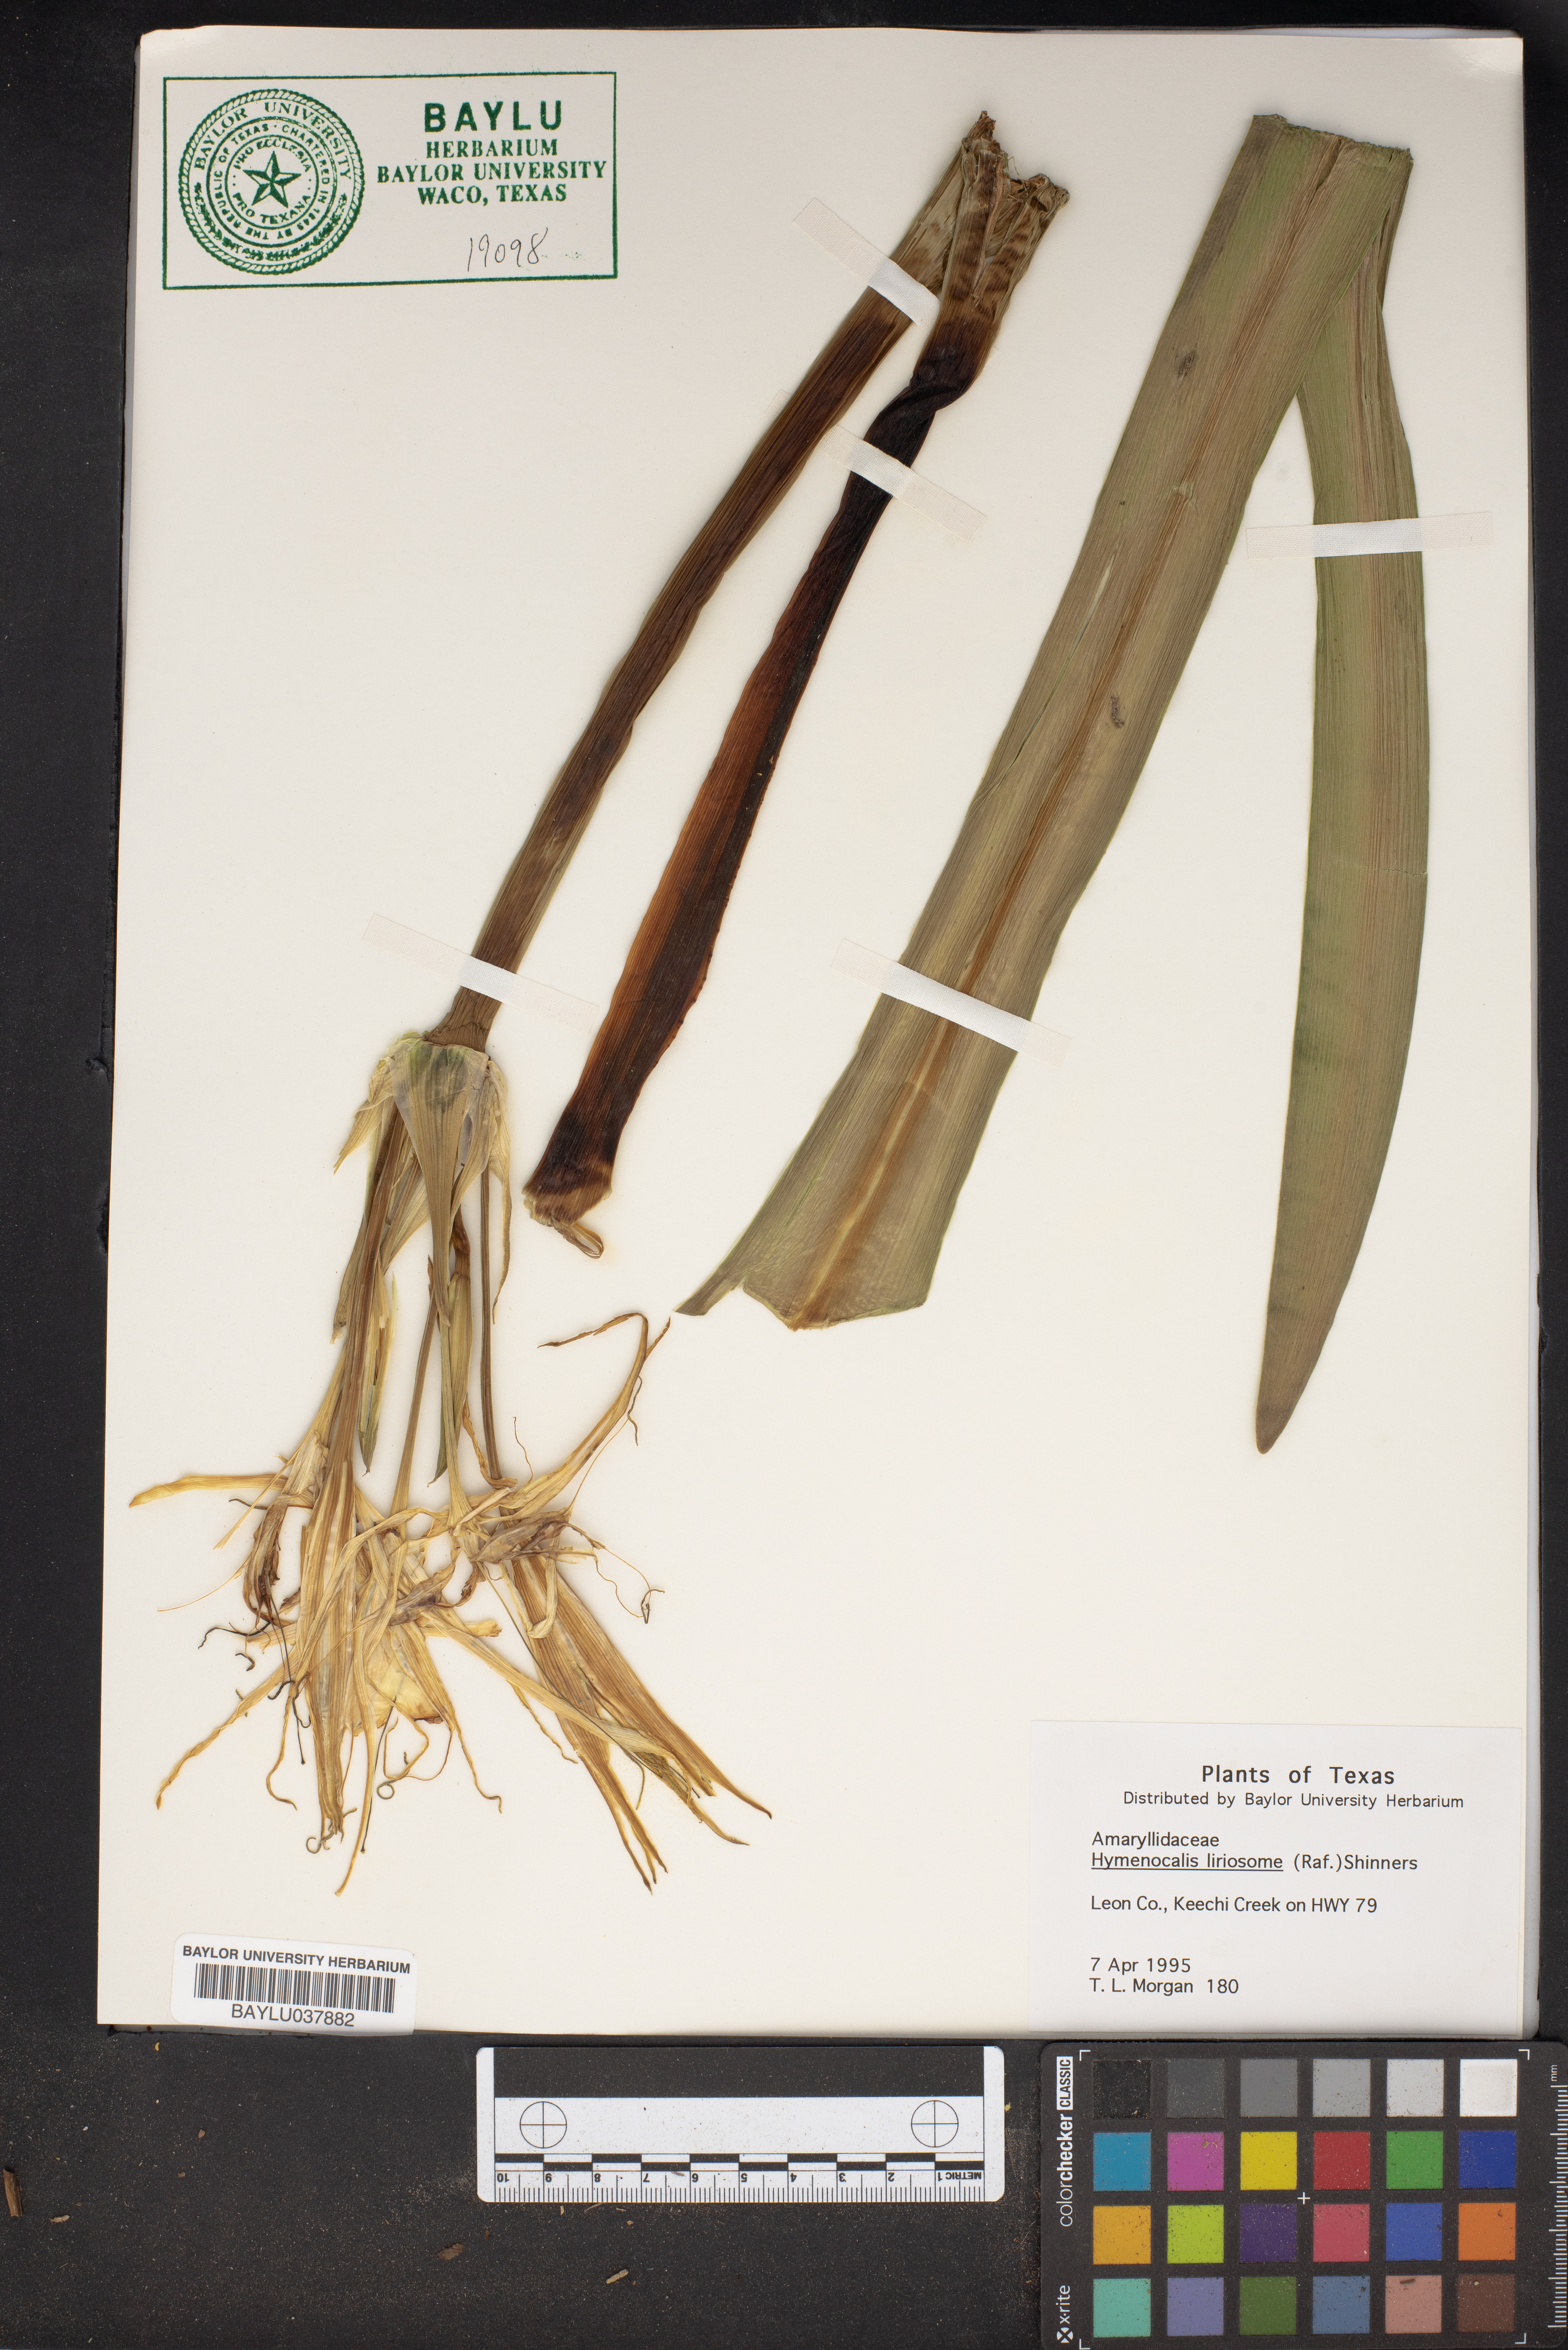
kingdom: Plantae
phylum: Tracheophyta
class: Liliopsida
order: Asparagales
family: Amaryllidaceae
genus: Hymenocallis
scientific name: Hymenocallis liriosme
